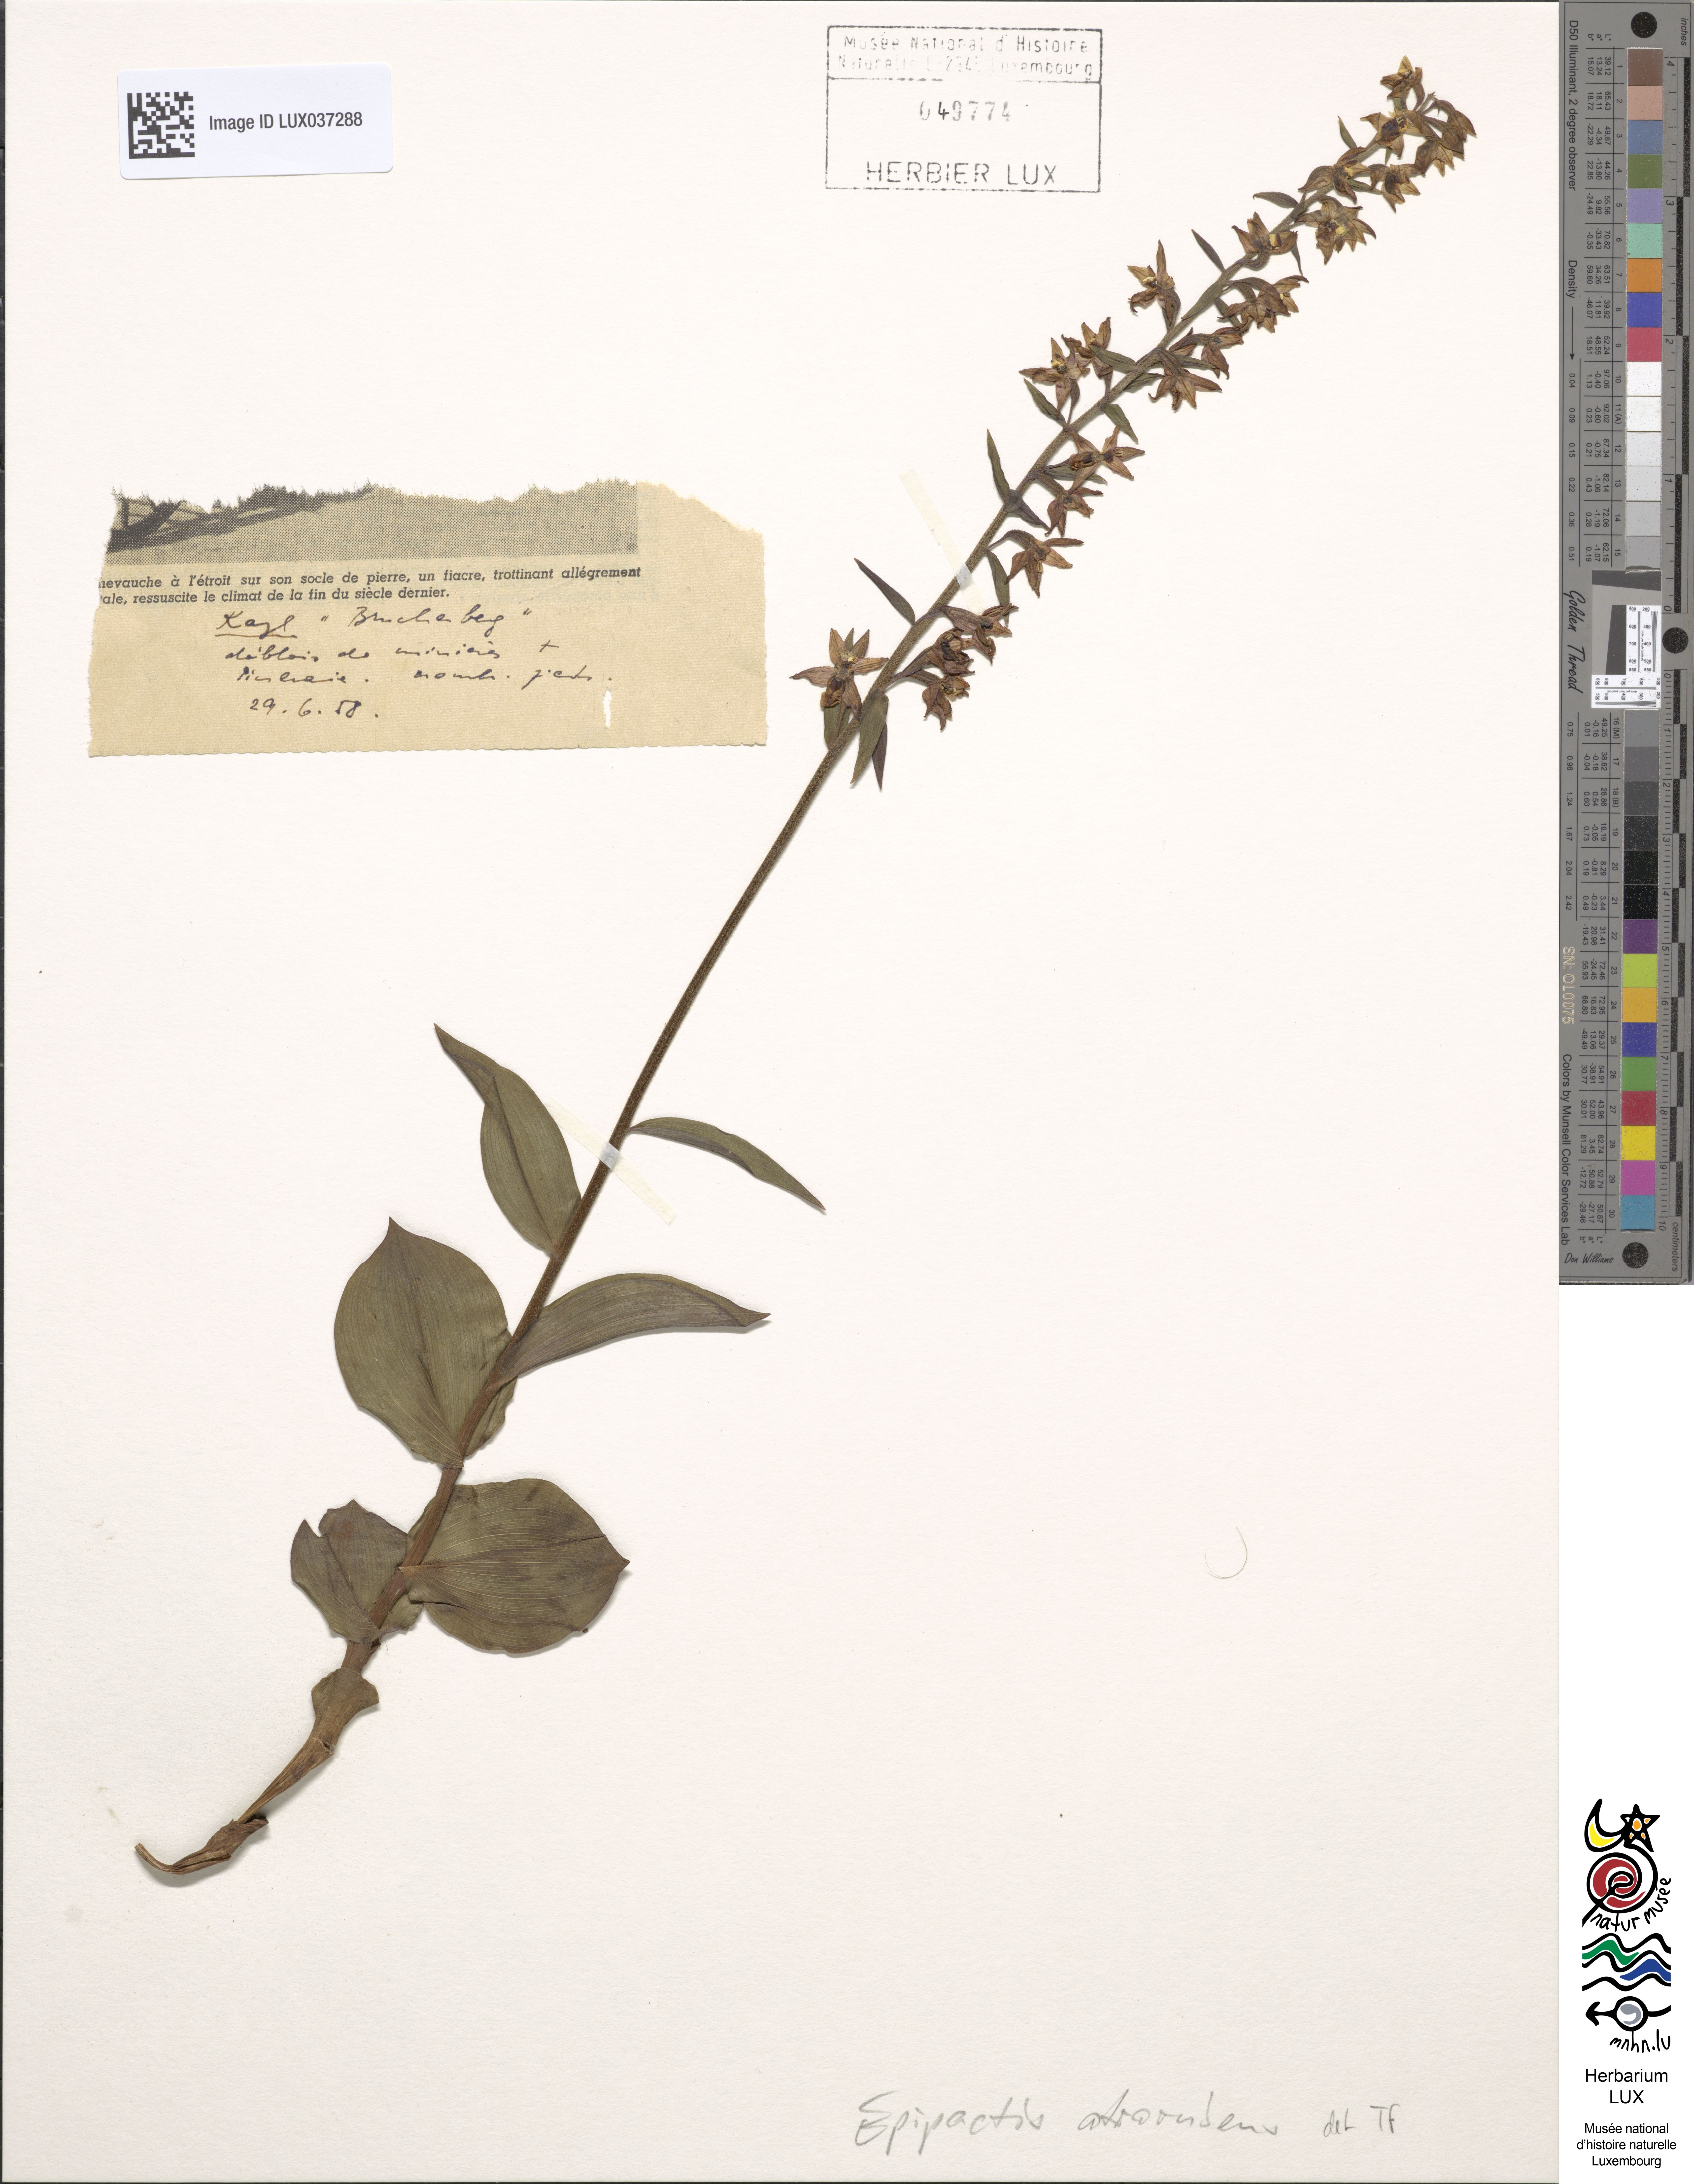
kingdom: Plantae
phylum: Tracheophyta
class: Liliopsida
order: Asparagales
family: Orchidaceae
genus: Epipactis
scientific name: Epipactis atrorubens
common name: Dark-red helleborine
